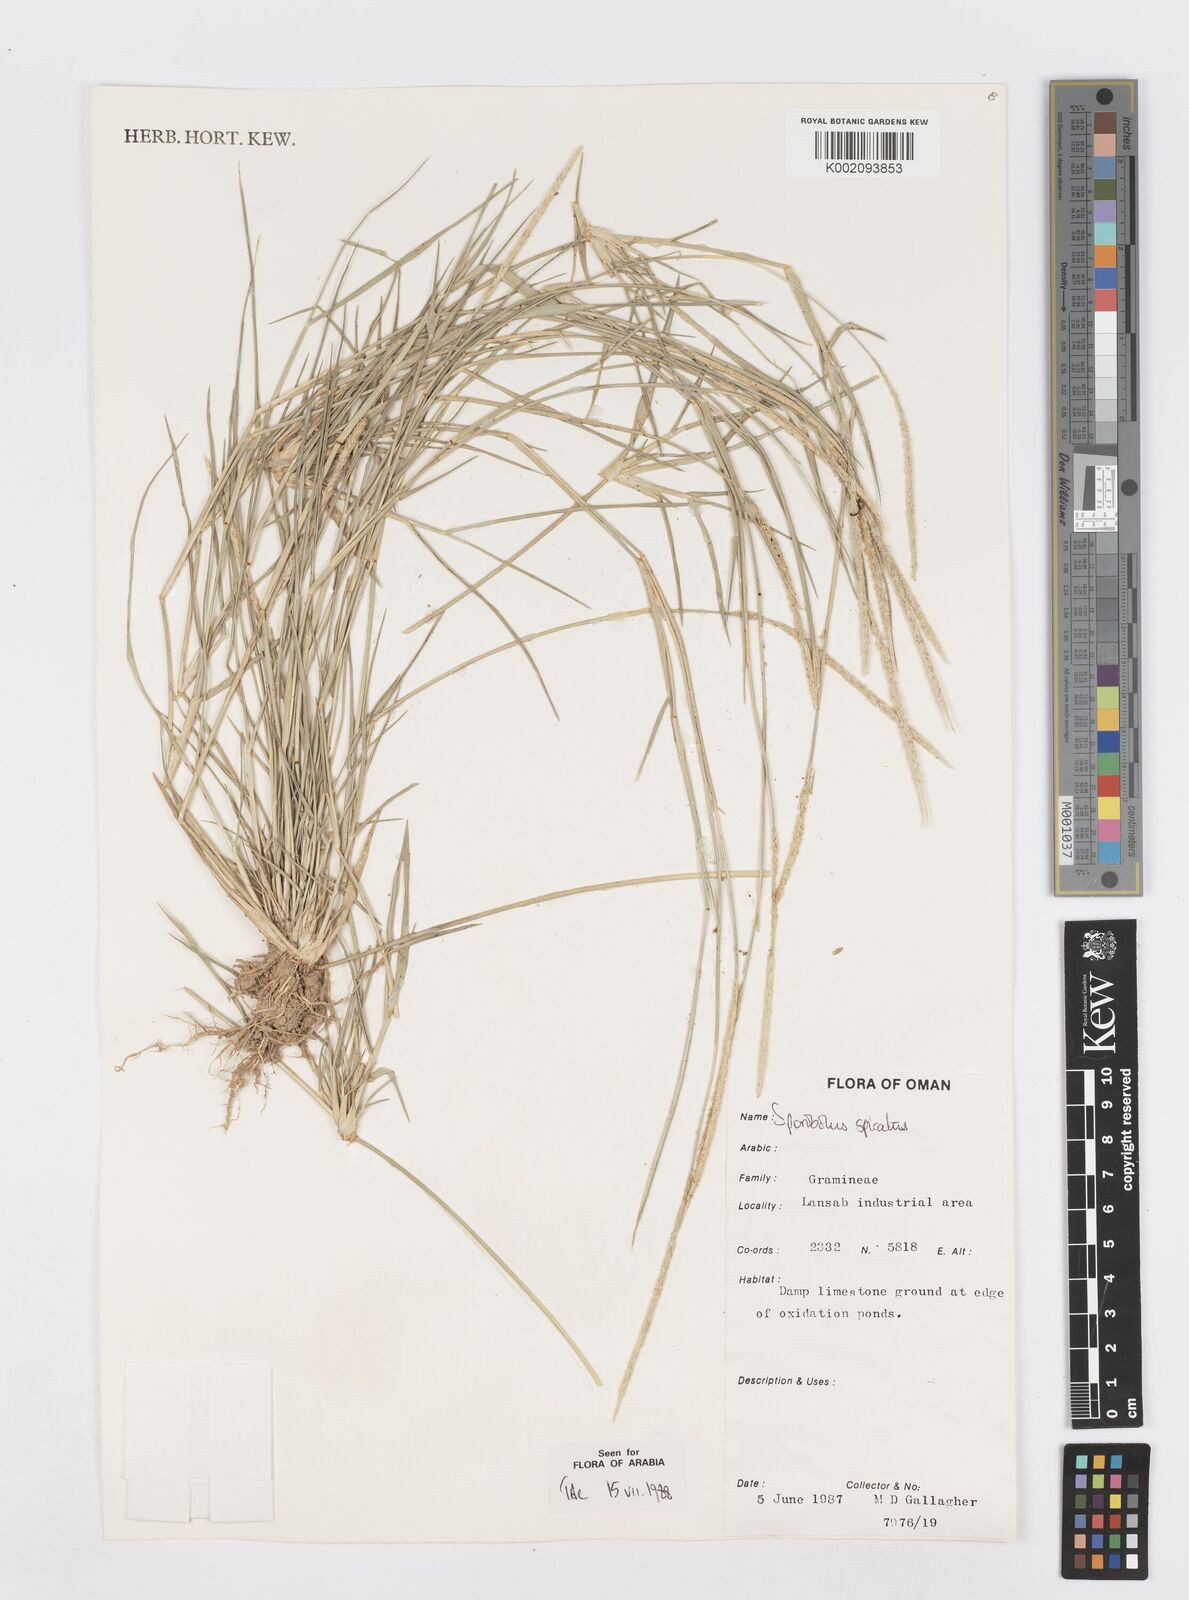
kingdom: Plantae
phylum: Tracheophyta
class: Liliopsida
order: Poales
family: Poaceae
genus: Sporobolus
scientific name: Sporobolus spicatus
